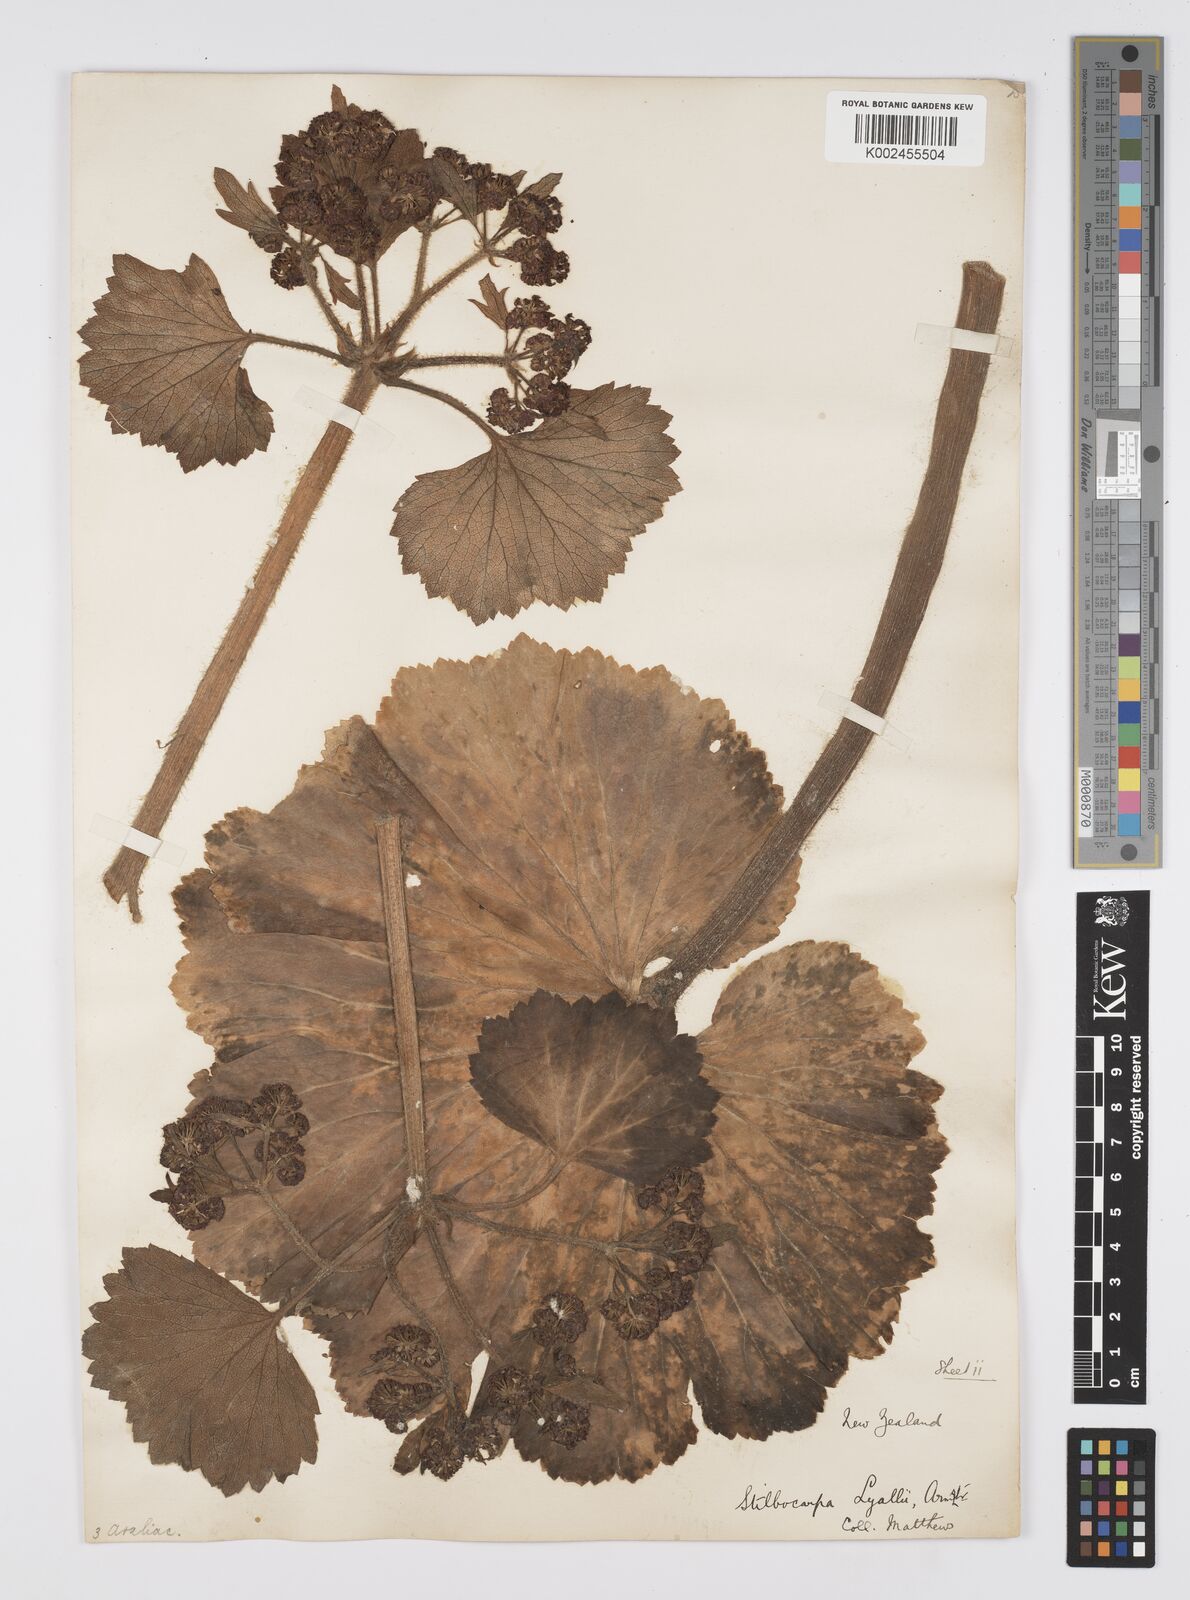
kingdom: Plantae
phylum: Tracheophyta
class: Magnoliopsida
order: Apiales
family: Apiaceae
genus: Azorella
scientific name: Azorella lyallii
